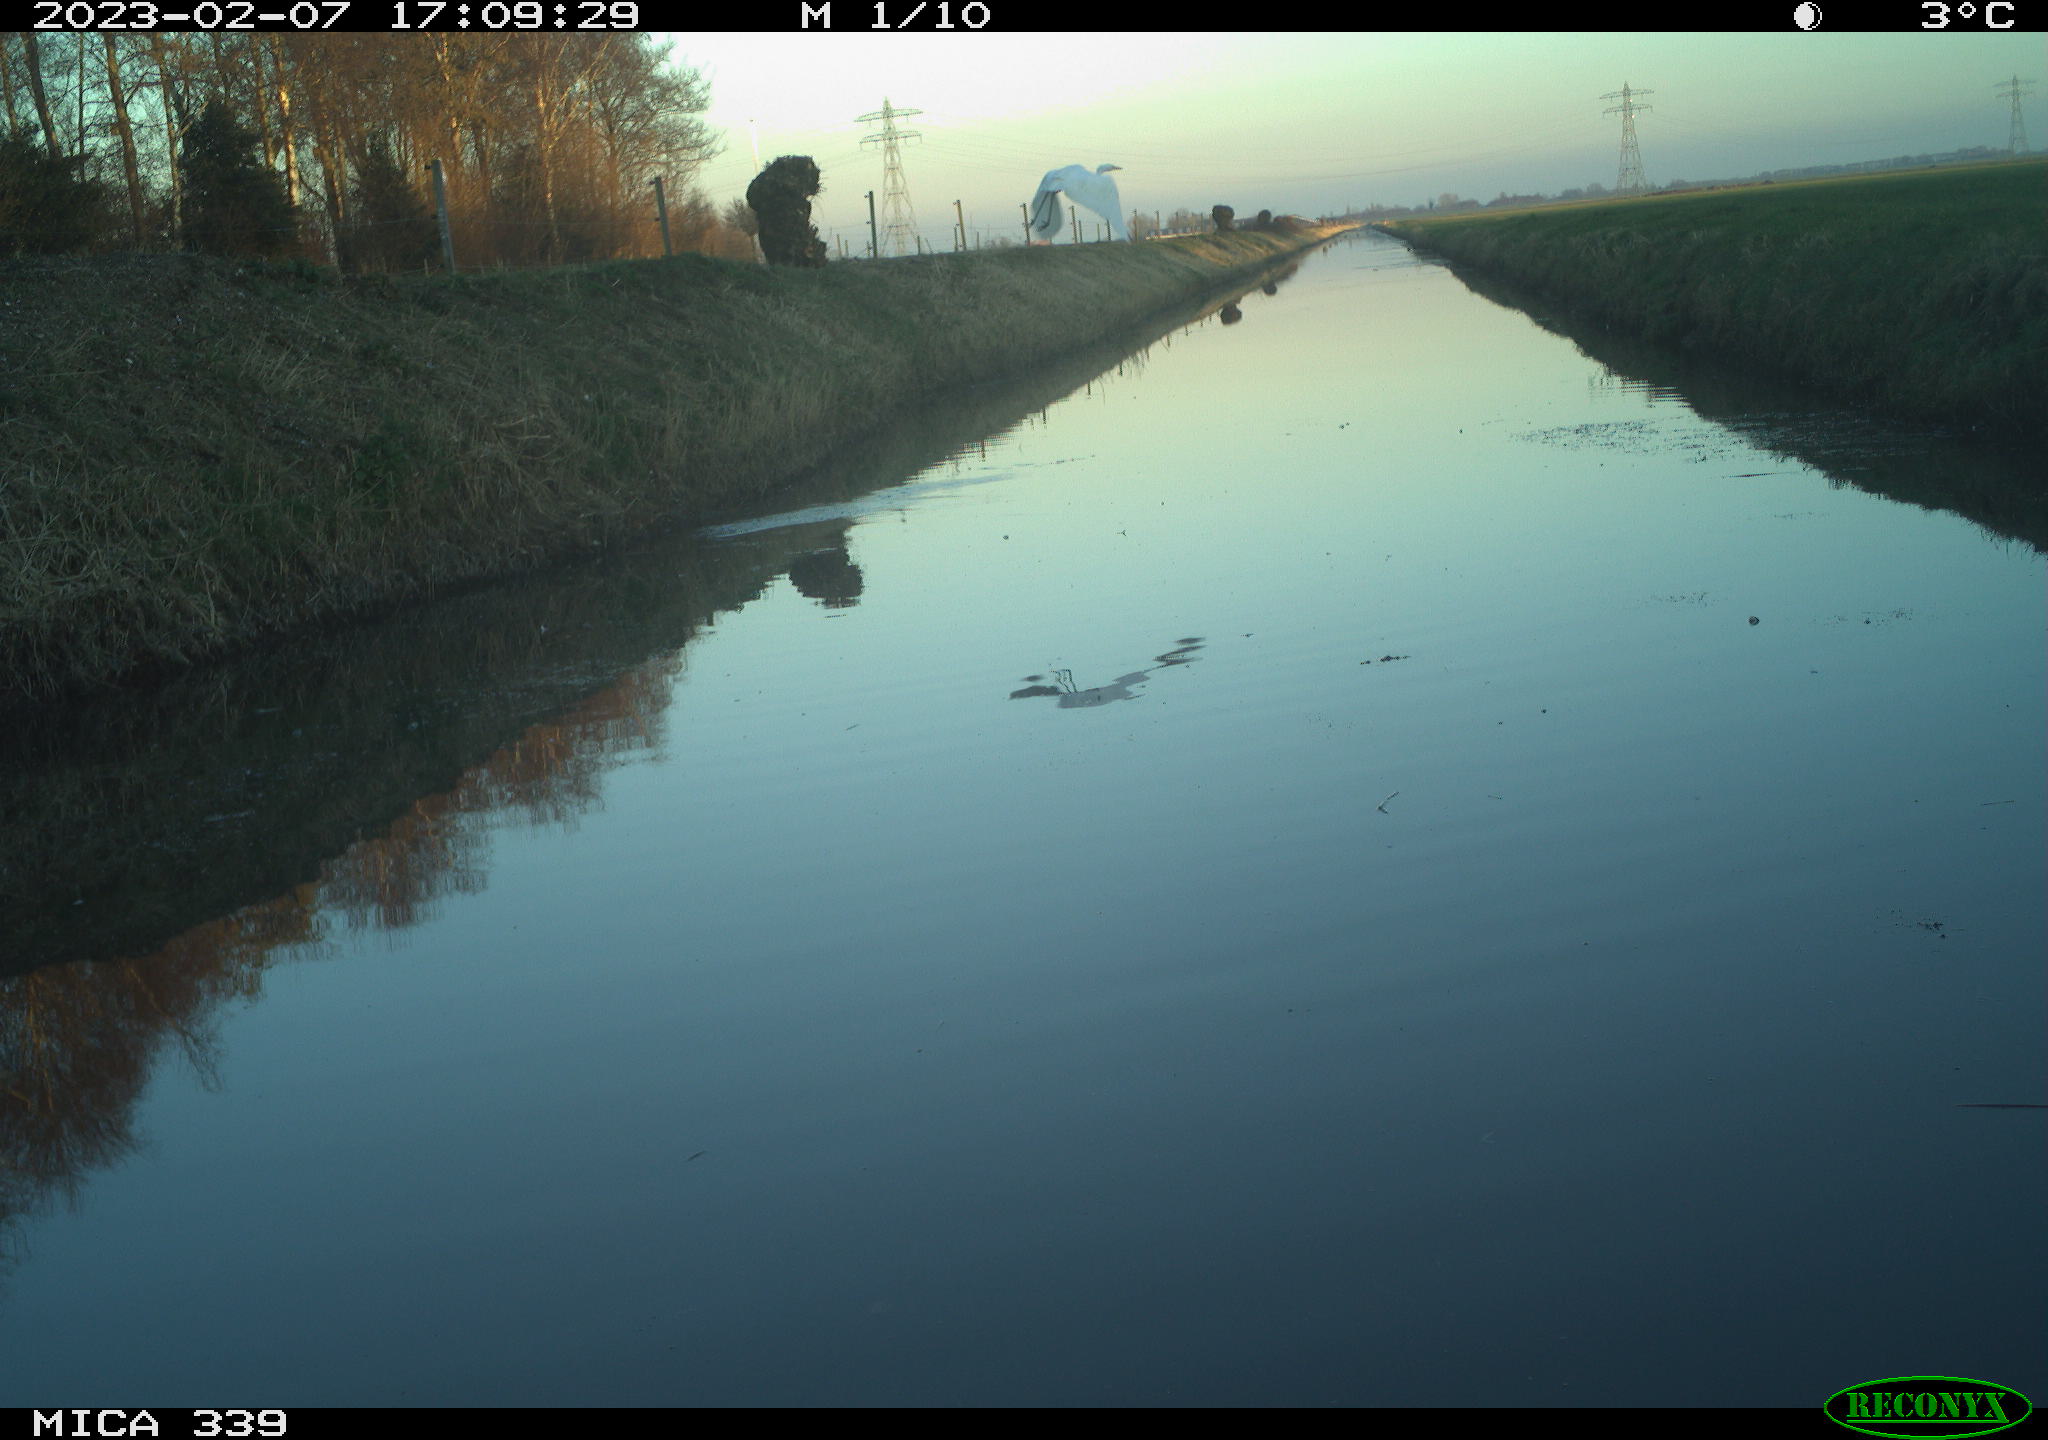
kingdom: Animalia
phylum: Chordata
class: Aves
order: Pelecaniformes
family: Ardeidae
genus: Ardea
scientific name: Ardea cinerea
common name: Grey heron
